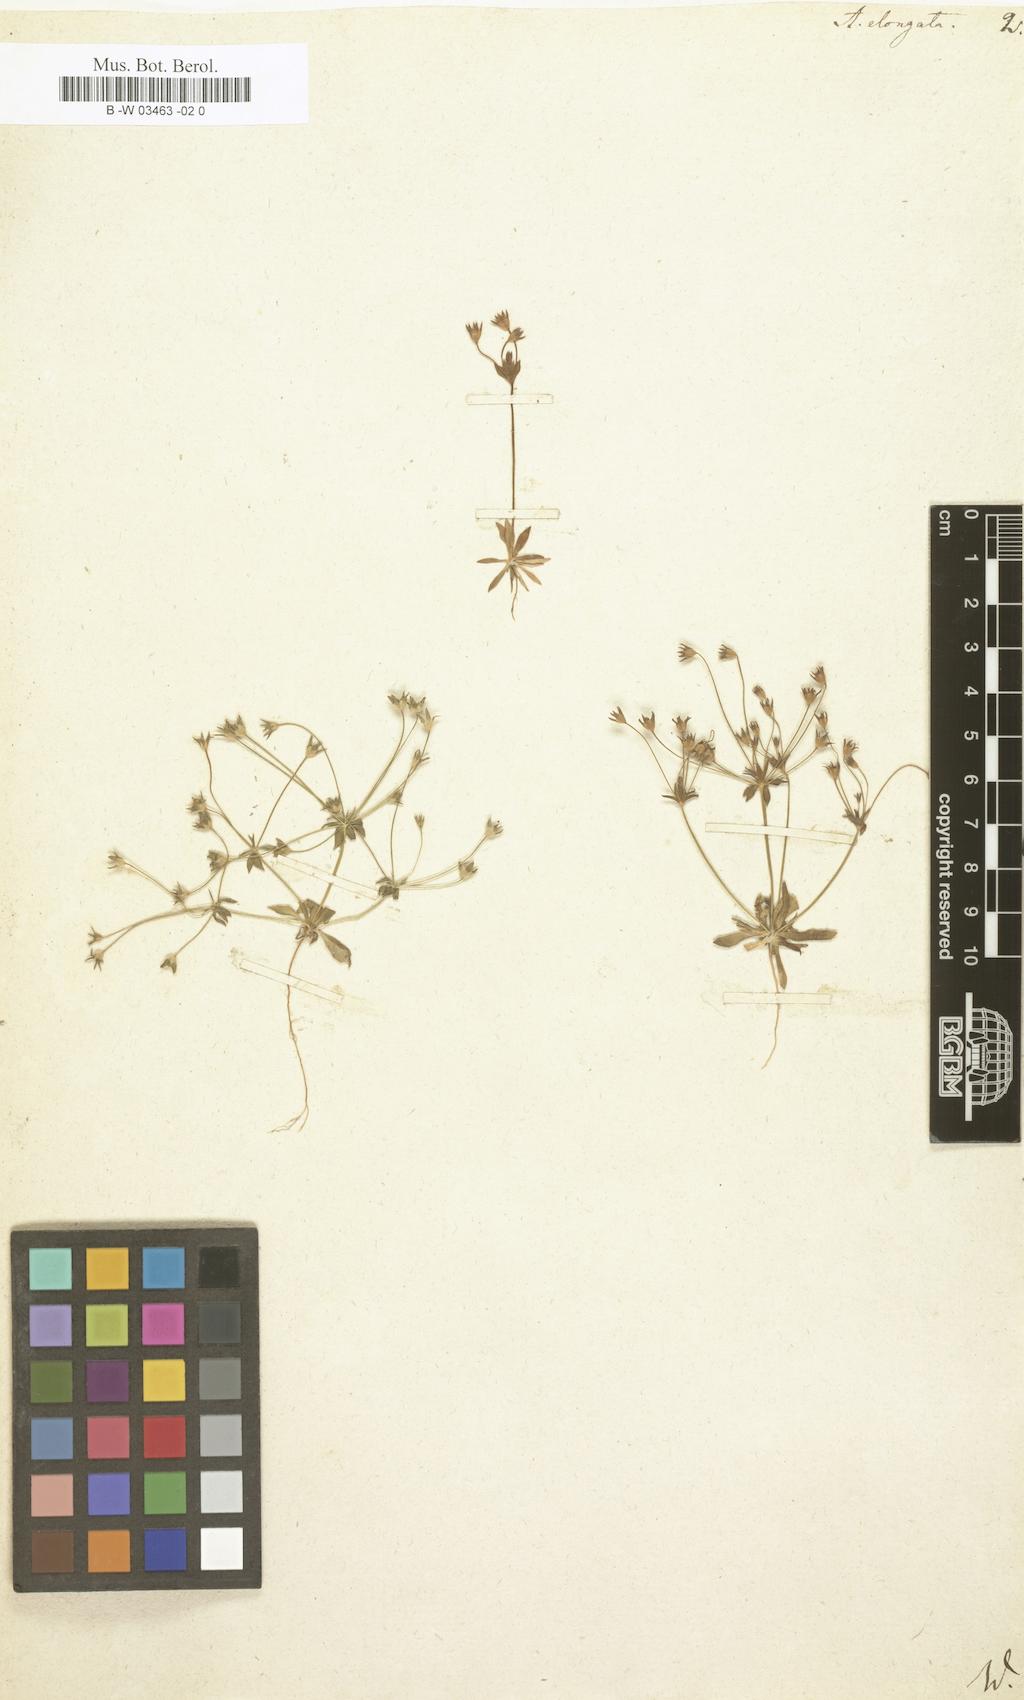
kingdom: Plantae
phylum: Tracheophyta
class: Magnoliopsida
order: Ericales
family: Primulaceae
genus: Androsace
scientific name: Androsace elongata
